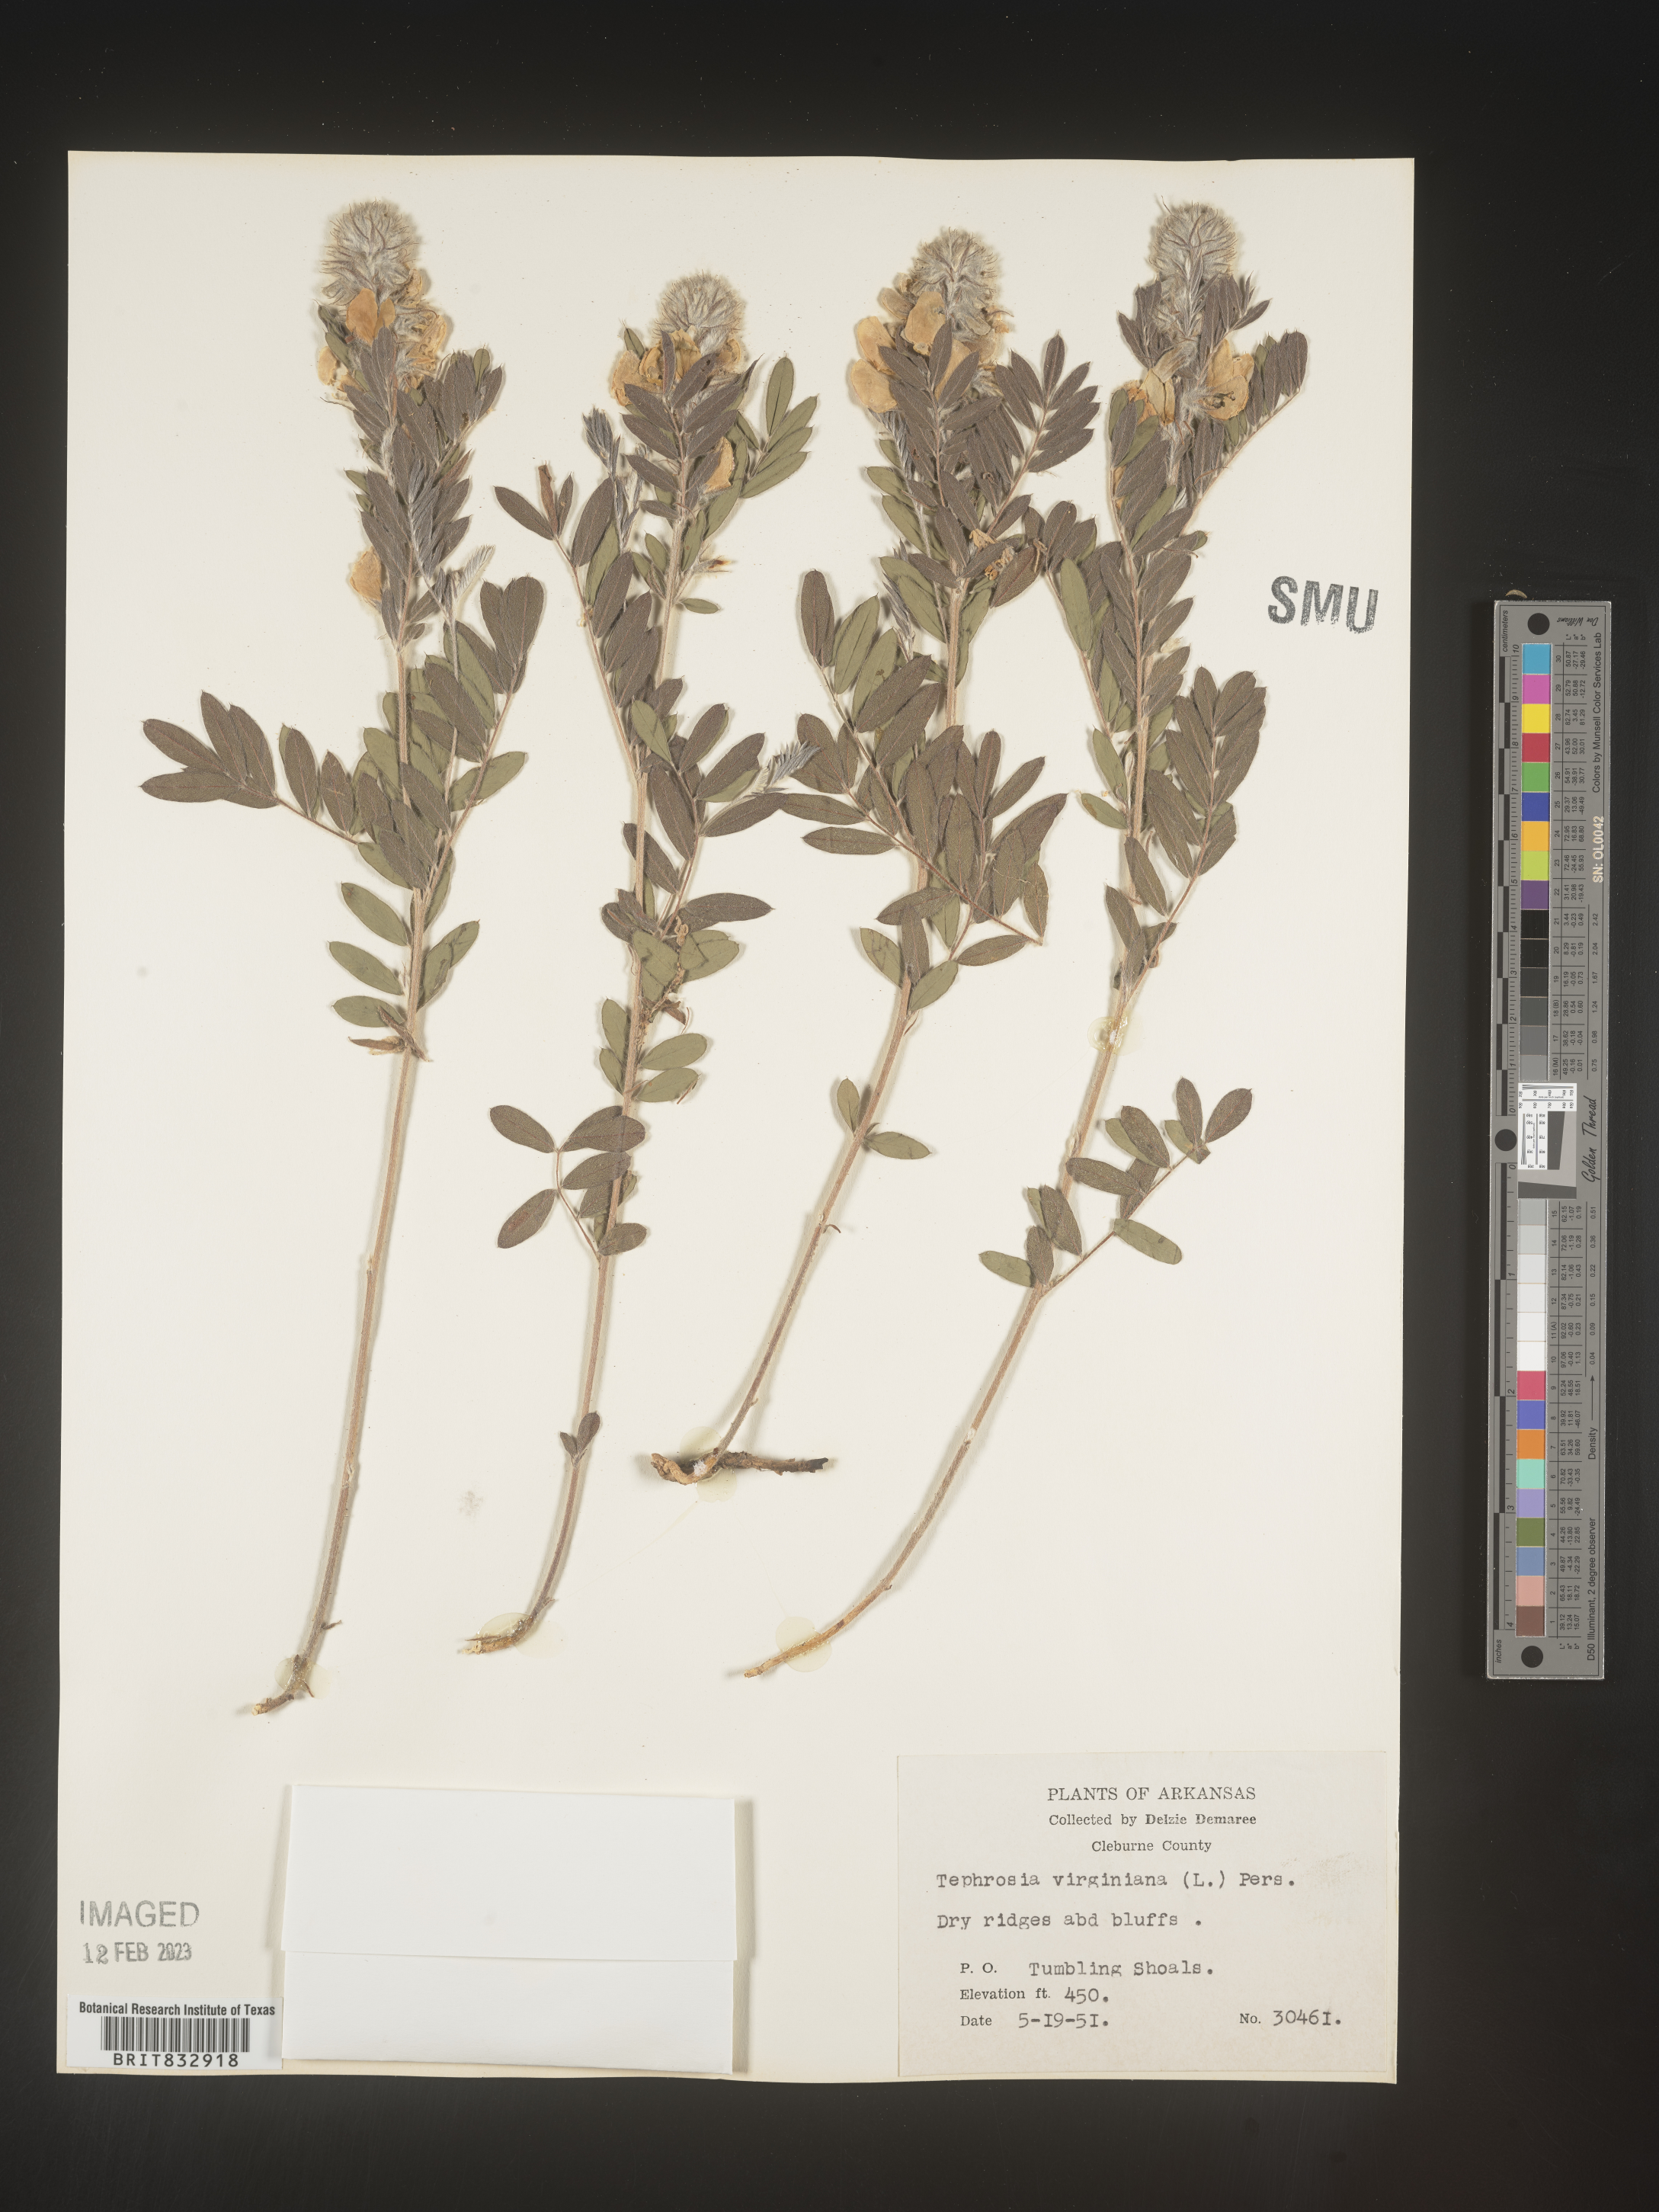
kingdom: Plantae
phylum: Tracheophyta
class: Magnoliopsida
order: Fabales
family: Fabaceae
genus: Tephrosia
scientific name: Tephrosia virginiana
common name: Rabbit-pea
